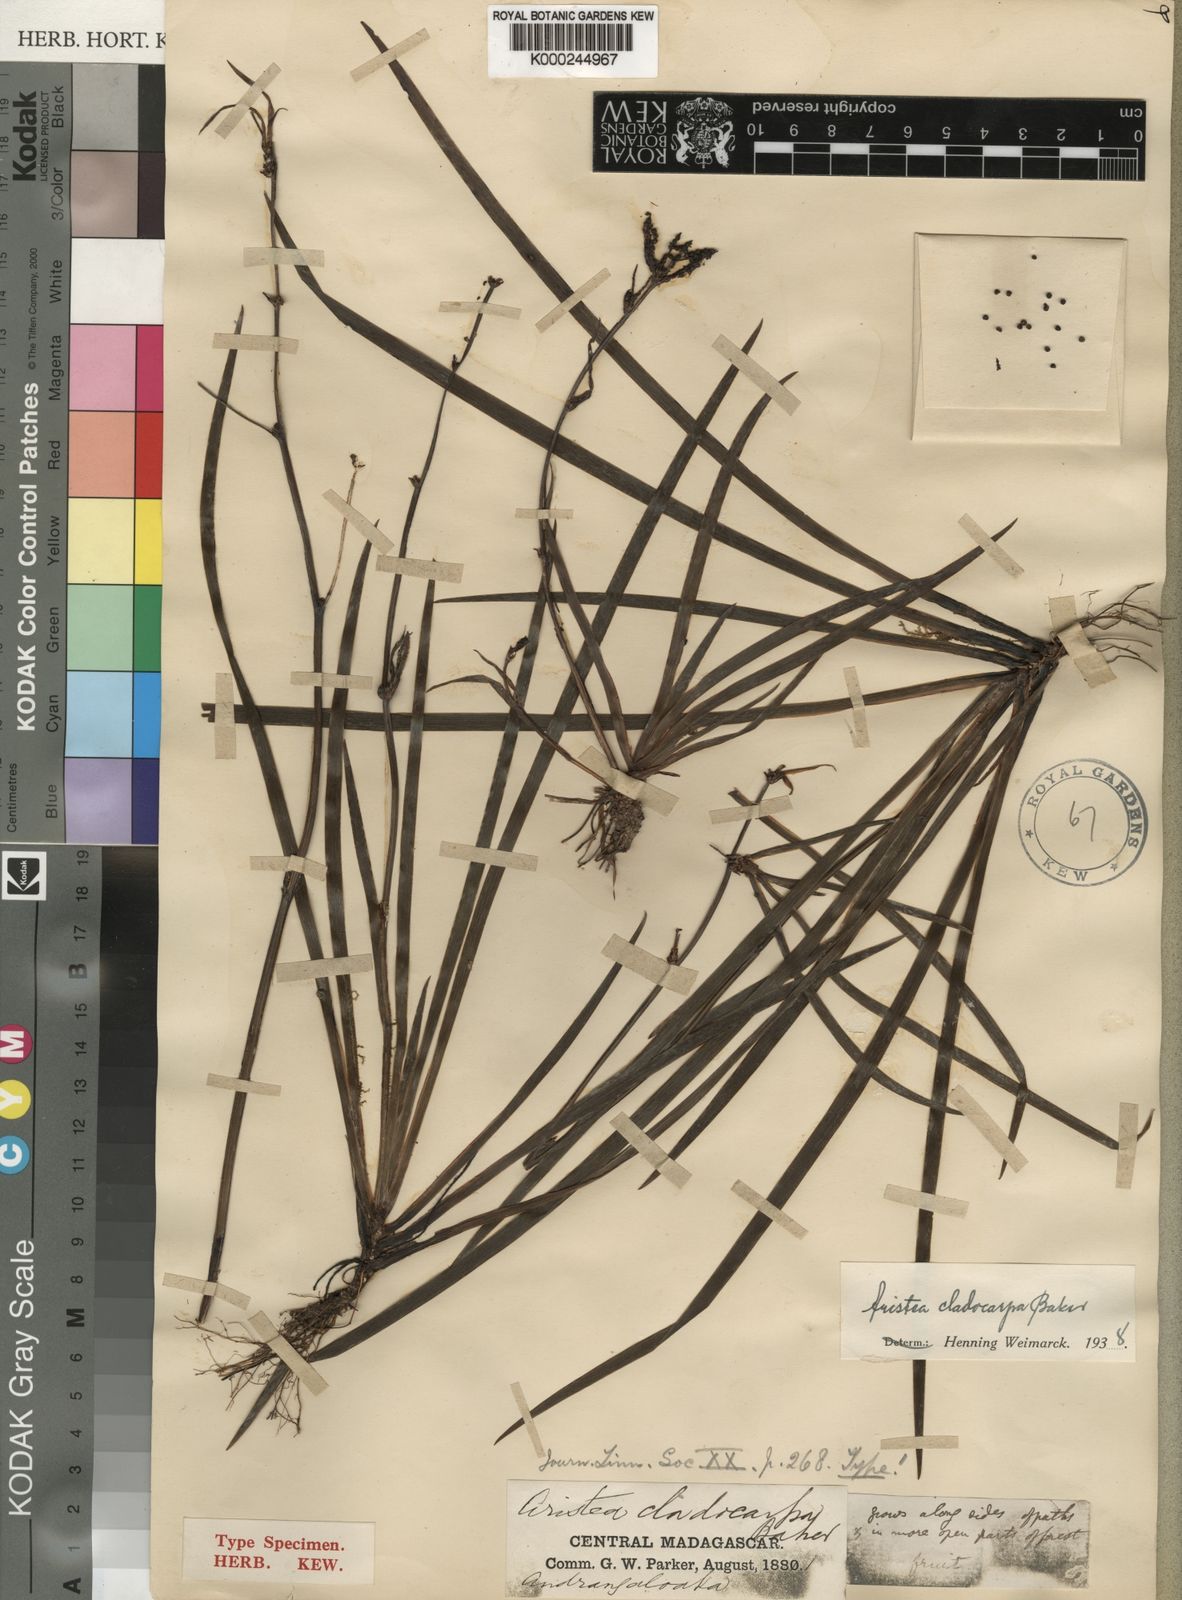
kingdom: Plantae
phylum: Tracheophyta
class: Liliopsida
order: Asparagales
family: Iridaceae
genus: Aristea
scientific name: Aristea cladocarpa
